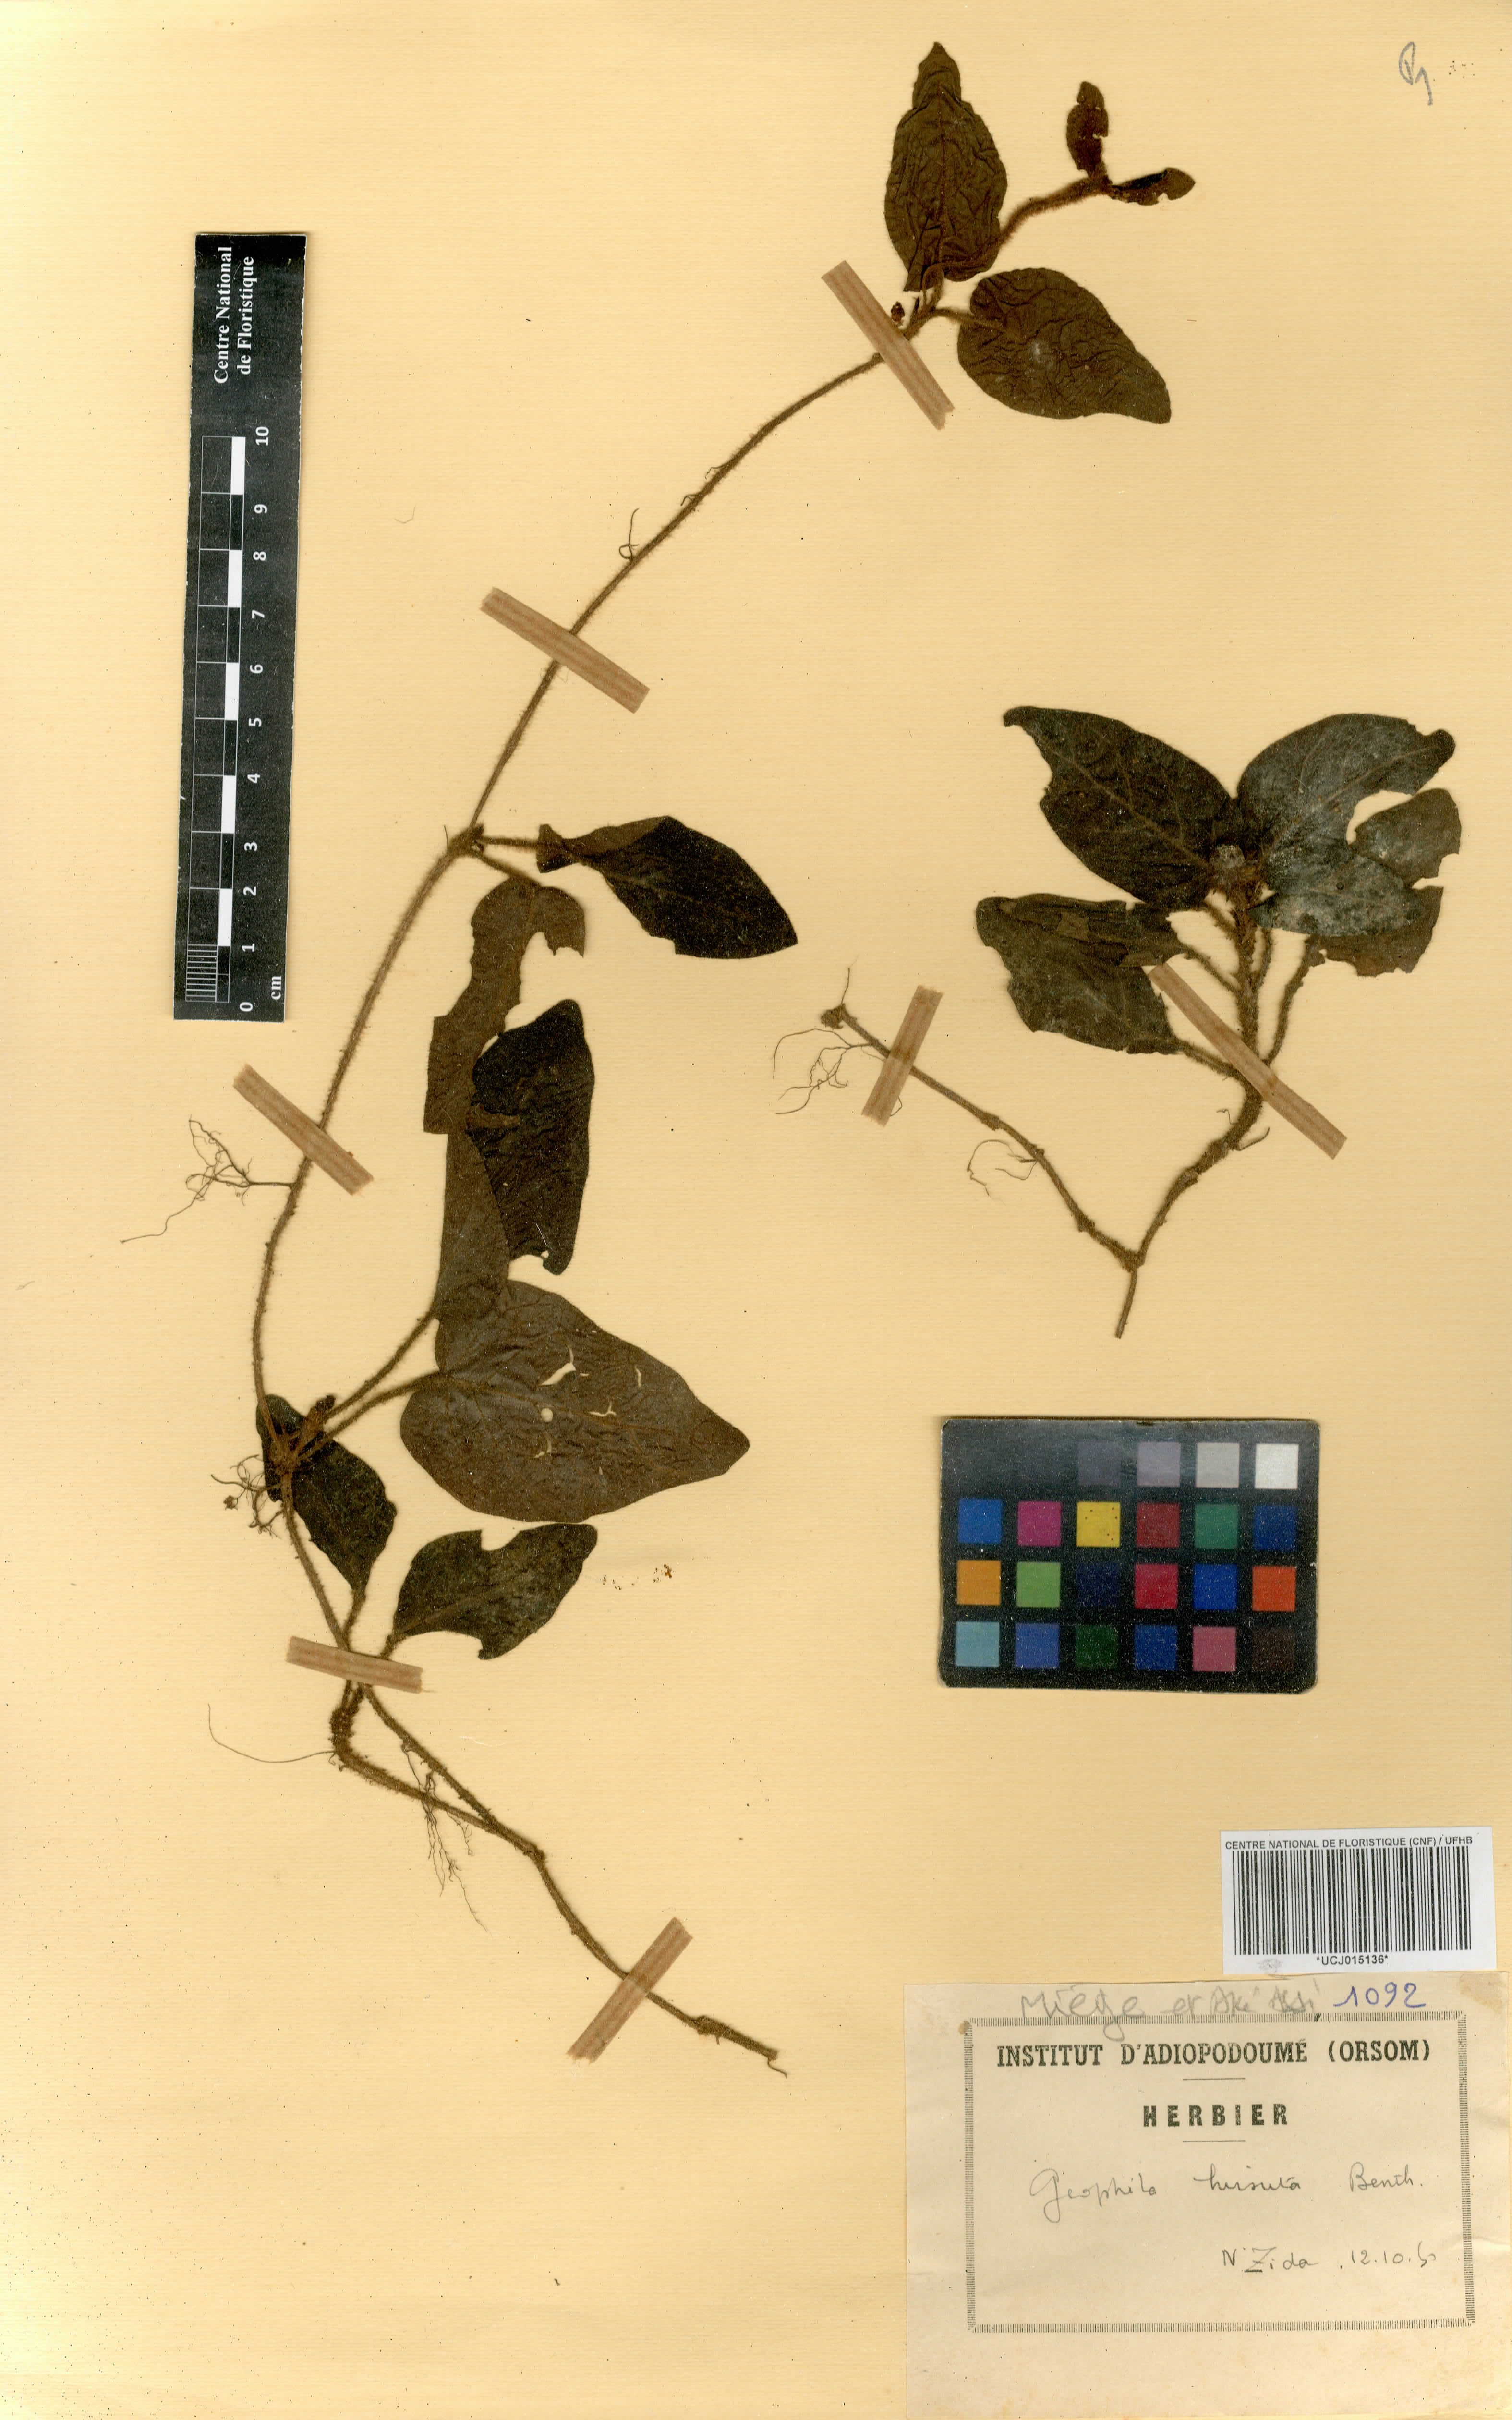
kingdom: Plantae
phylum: Tracheophyta
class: Magnoliopsida
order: Gentianales
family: Rubiaceae
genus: Hymenocoleus
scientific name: Hymenocoleus hirsutus
